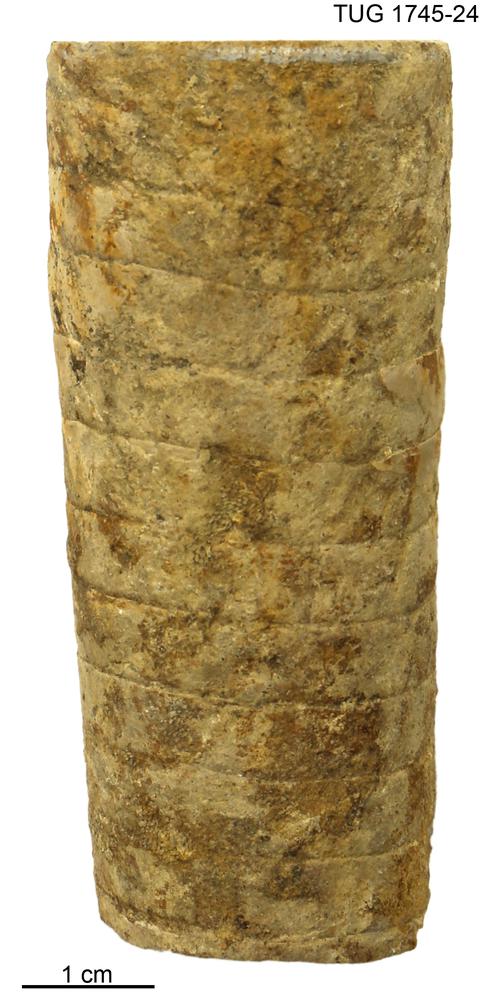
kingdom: Animalia
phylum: Mollusca
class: Cephalopoda
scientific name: Cephalopoda
